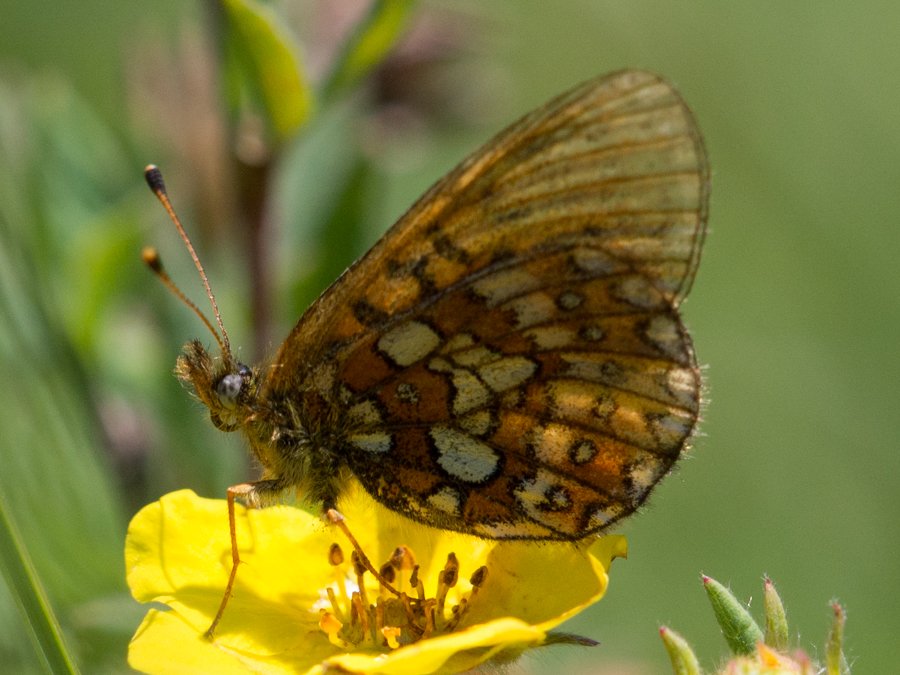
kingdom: Animalia
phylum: Arthropoda
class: Insecta
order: Lepidoptera
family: Nymphalidae
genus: Boloria
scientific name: Boloria eunomia
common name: Bog Fritillary
